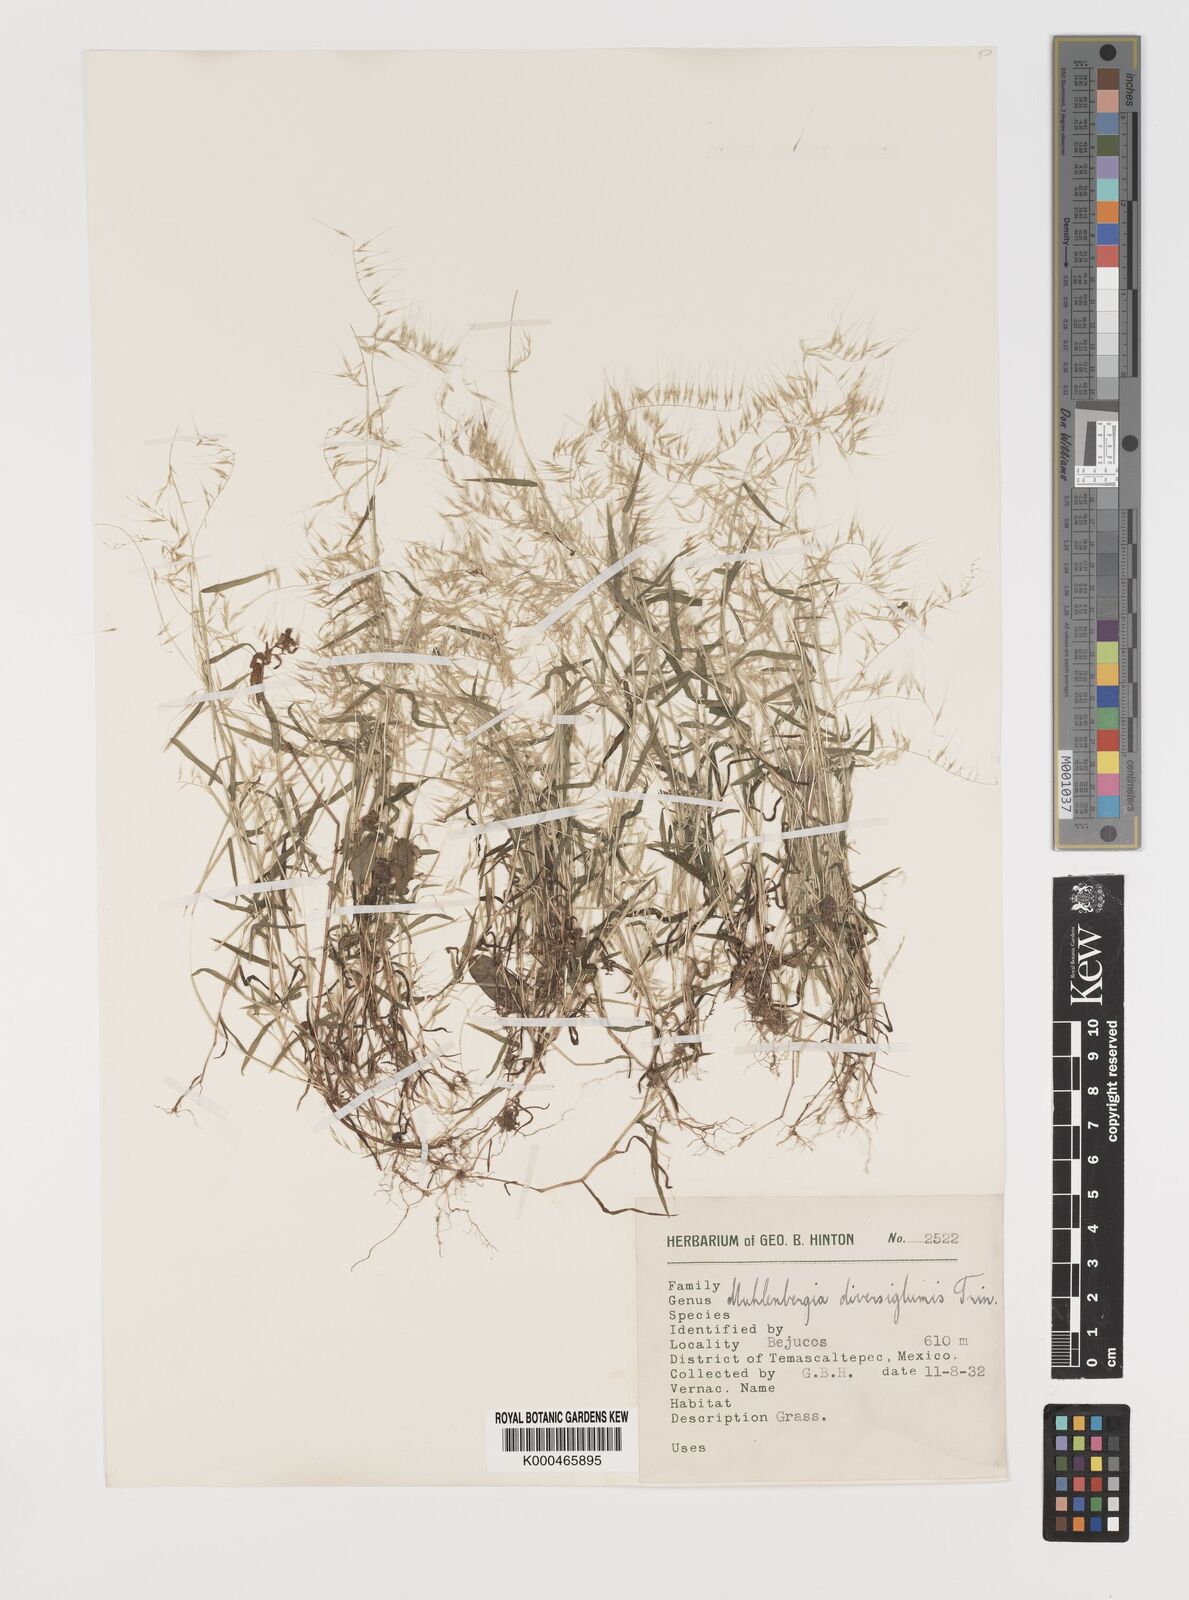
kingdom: Plantae
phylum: Tracheophyta
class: Liliopsida
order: Poales
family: Poaceae
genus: Muhlenbergia
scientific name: Muhlenbergia diversiglumis
